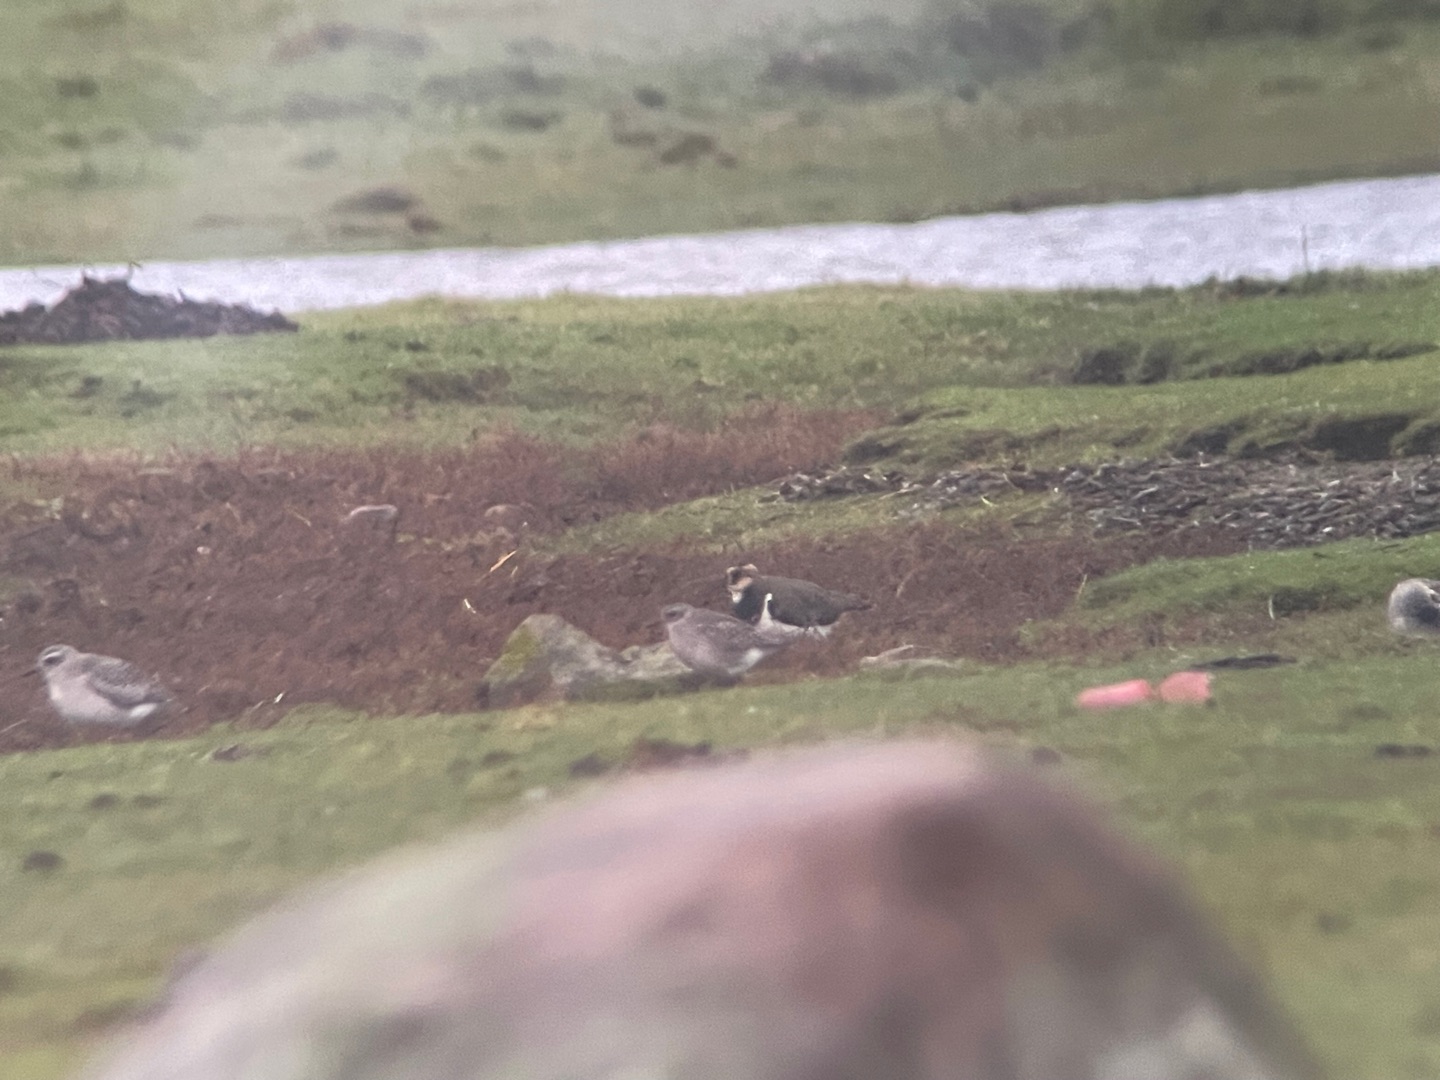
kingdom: Animalia
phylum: Chordata
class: Aves
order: Charadriiformes
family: Charadriidae
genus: Pluvialis
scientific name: Pluvialis squatarola
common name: Strandhjejle
